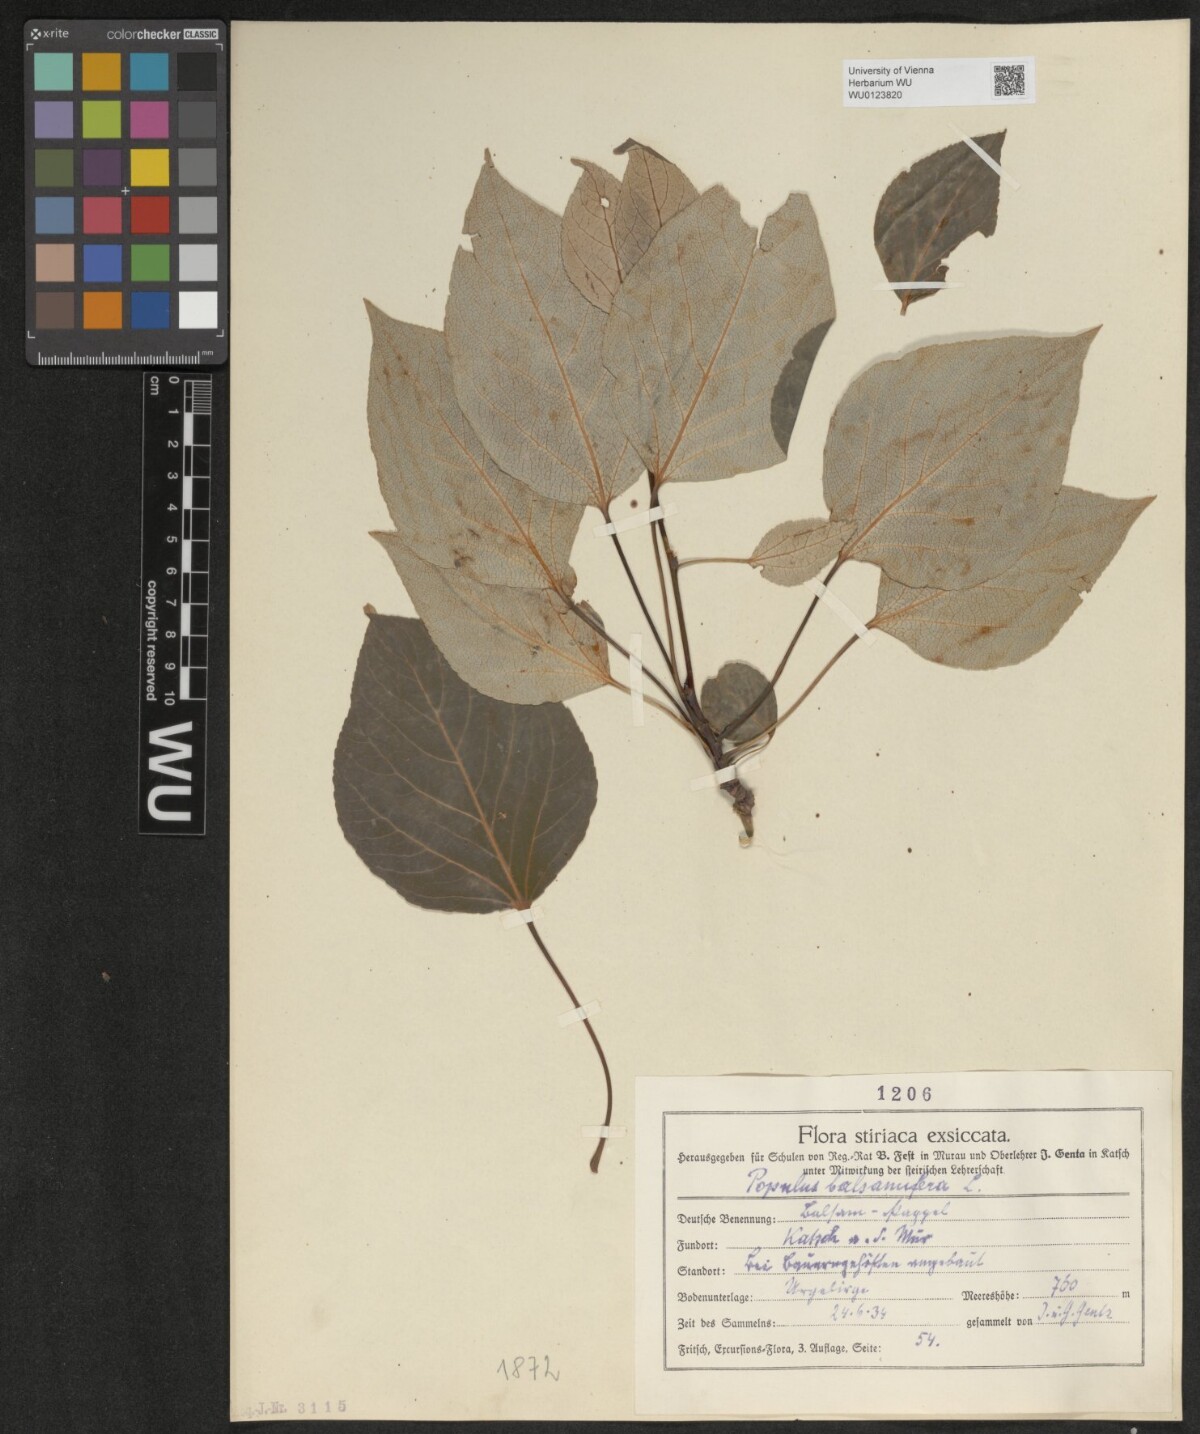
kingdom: Plantae
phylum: Tracheophyta
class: Magnoliopsida
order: Malpighiales
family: Salicaceae
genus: Populus
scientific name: Populus balsamifera
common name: Balsam poplar
